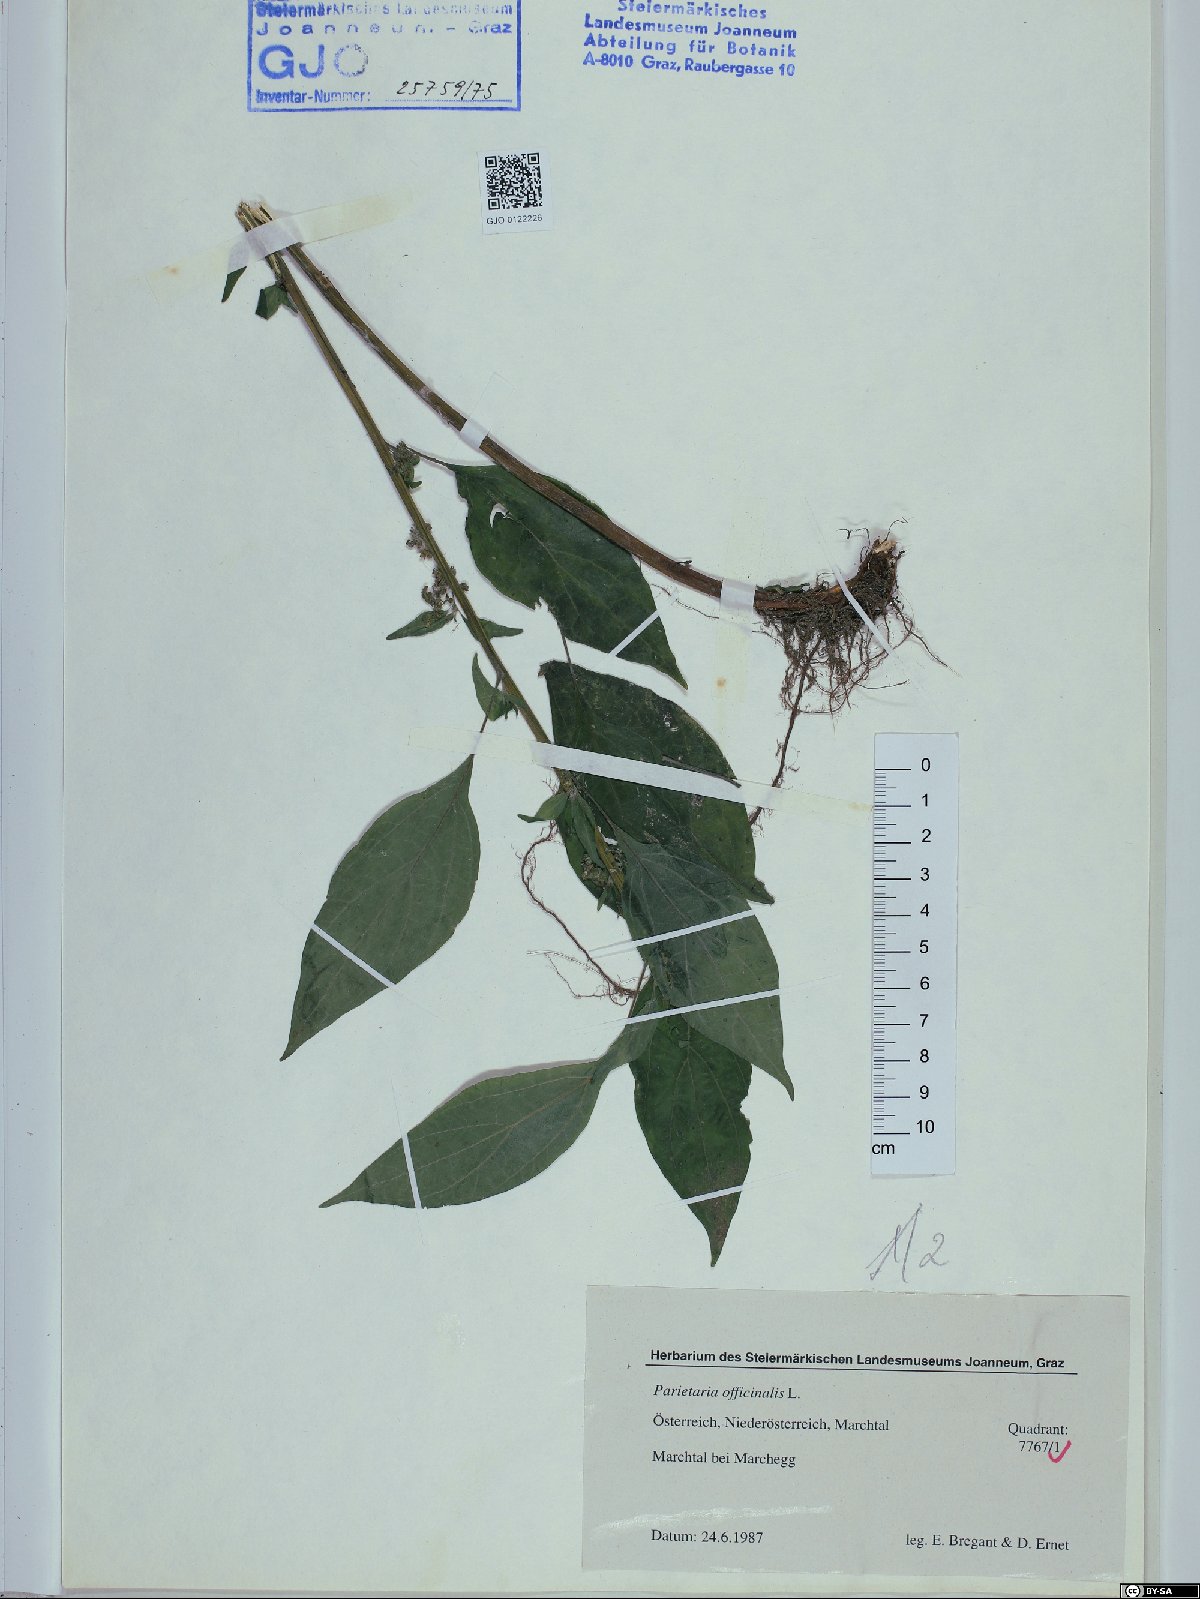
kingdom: Plantae
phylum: Tracheophyta
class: Magnoliopsida
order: Rosales
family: Urticaceae
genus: Parietaria
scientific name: Parietaria officinalis
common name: Eastern pellitory-of-the-wall
